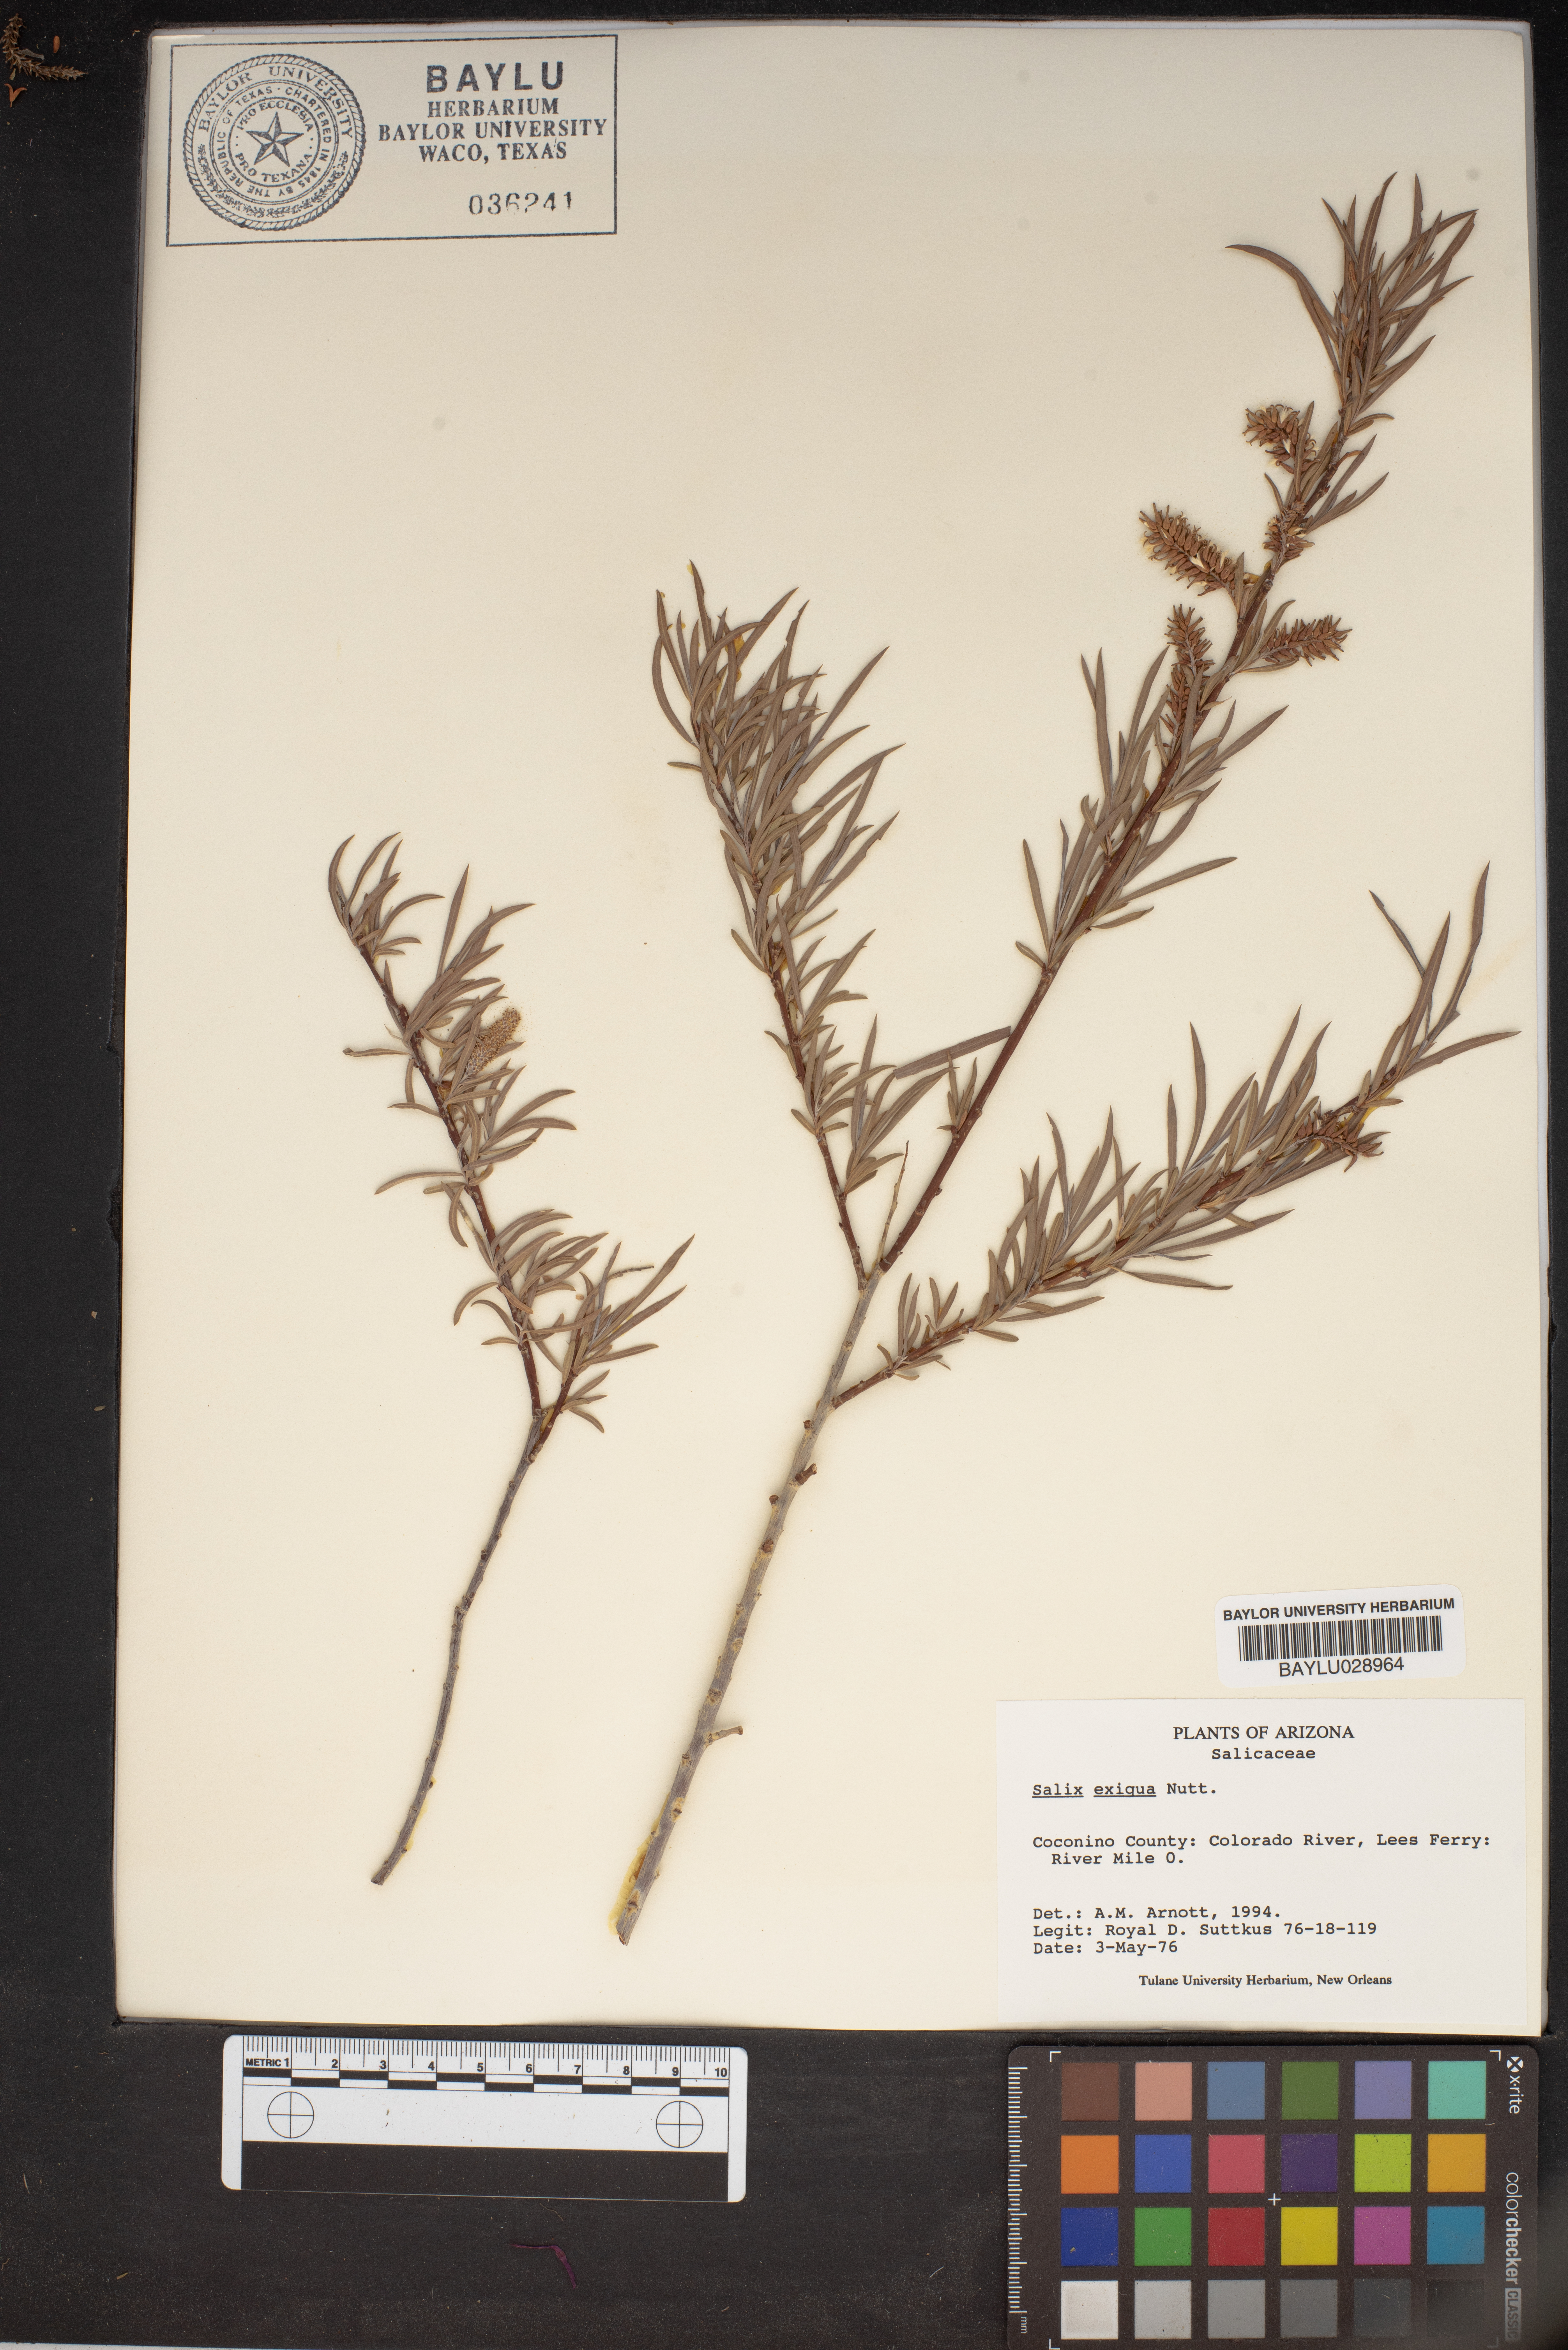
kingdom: Plantae
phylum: Tracheophyta
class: Magnoliopsida
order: Malpighiales
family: Salicaceae
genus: Salix
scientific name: Salix exigua
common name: Coyote willow
